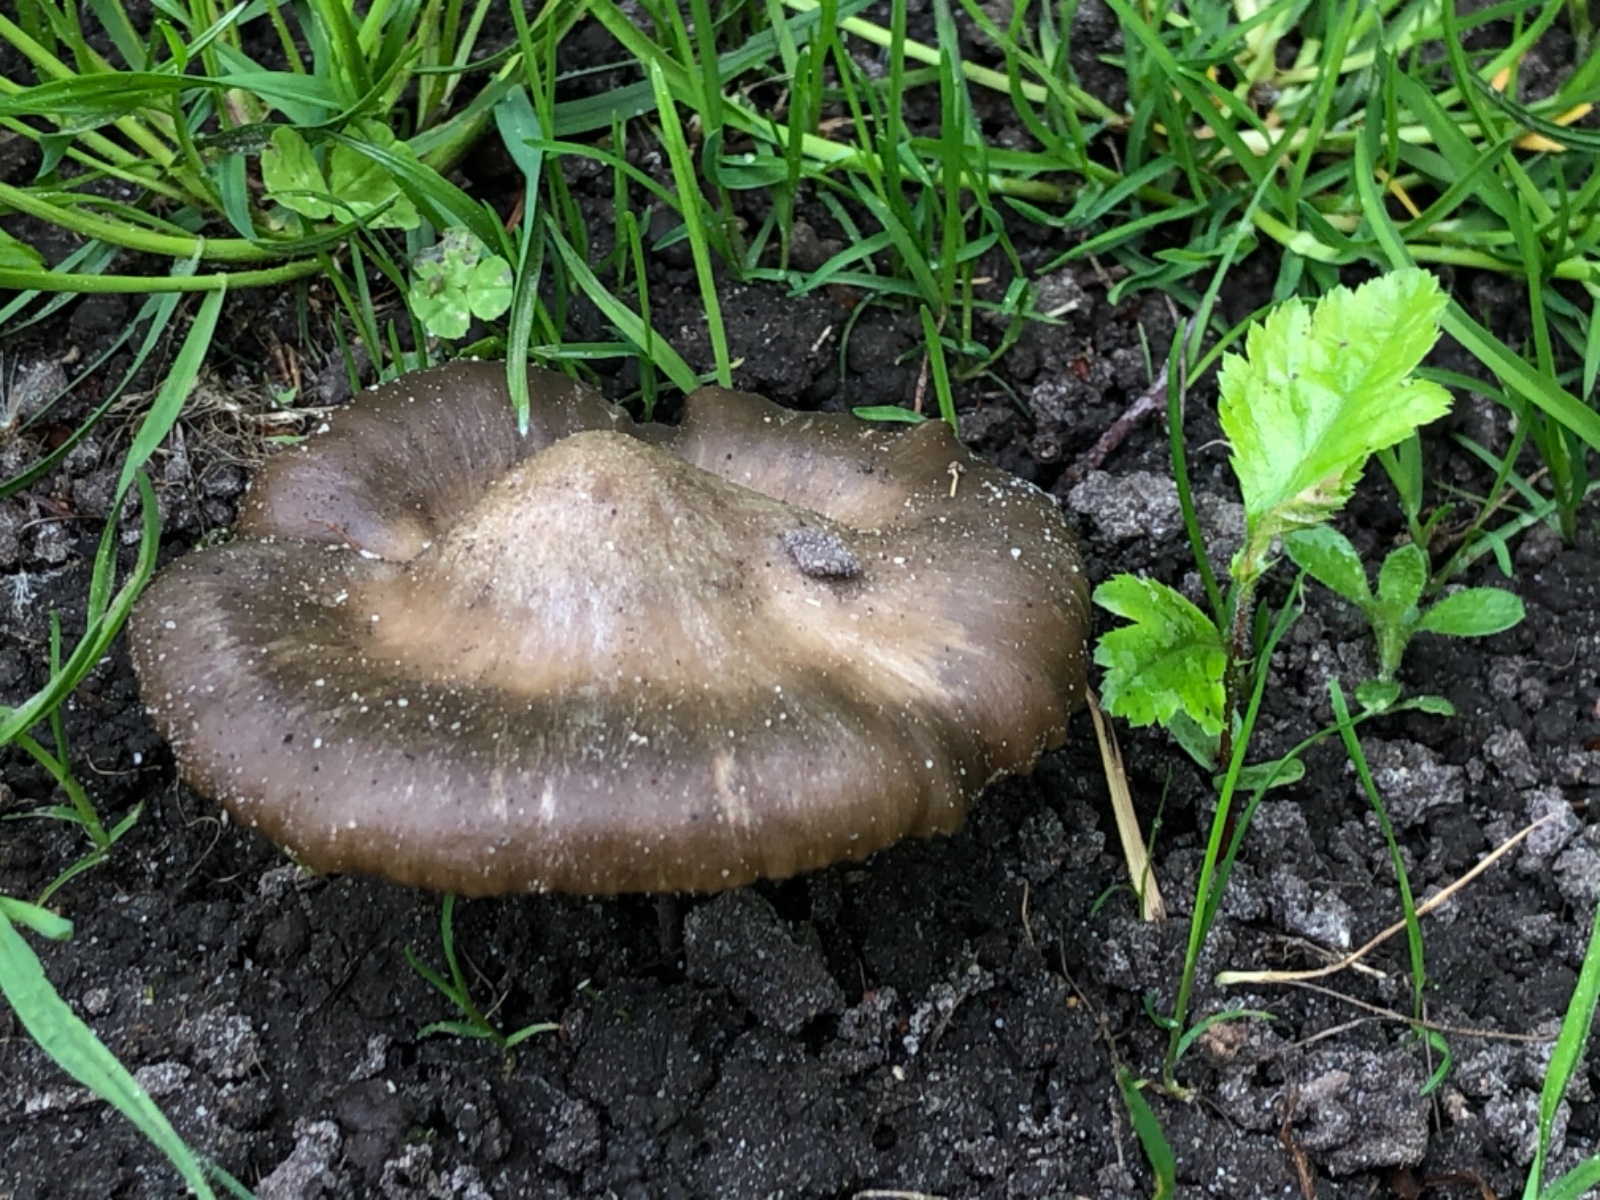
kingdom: Fungi
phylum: Basidiomycota
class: Agaricomycetes
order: Agaricales
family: Entolomataceae
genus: Entoloma
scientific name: Entoloma clypeatum
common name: Shield pinkgill
